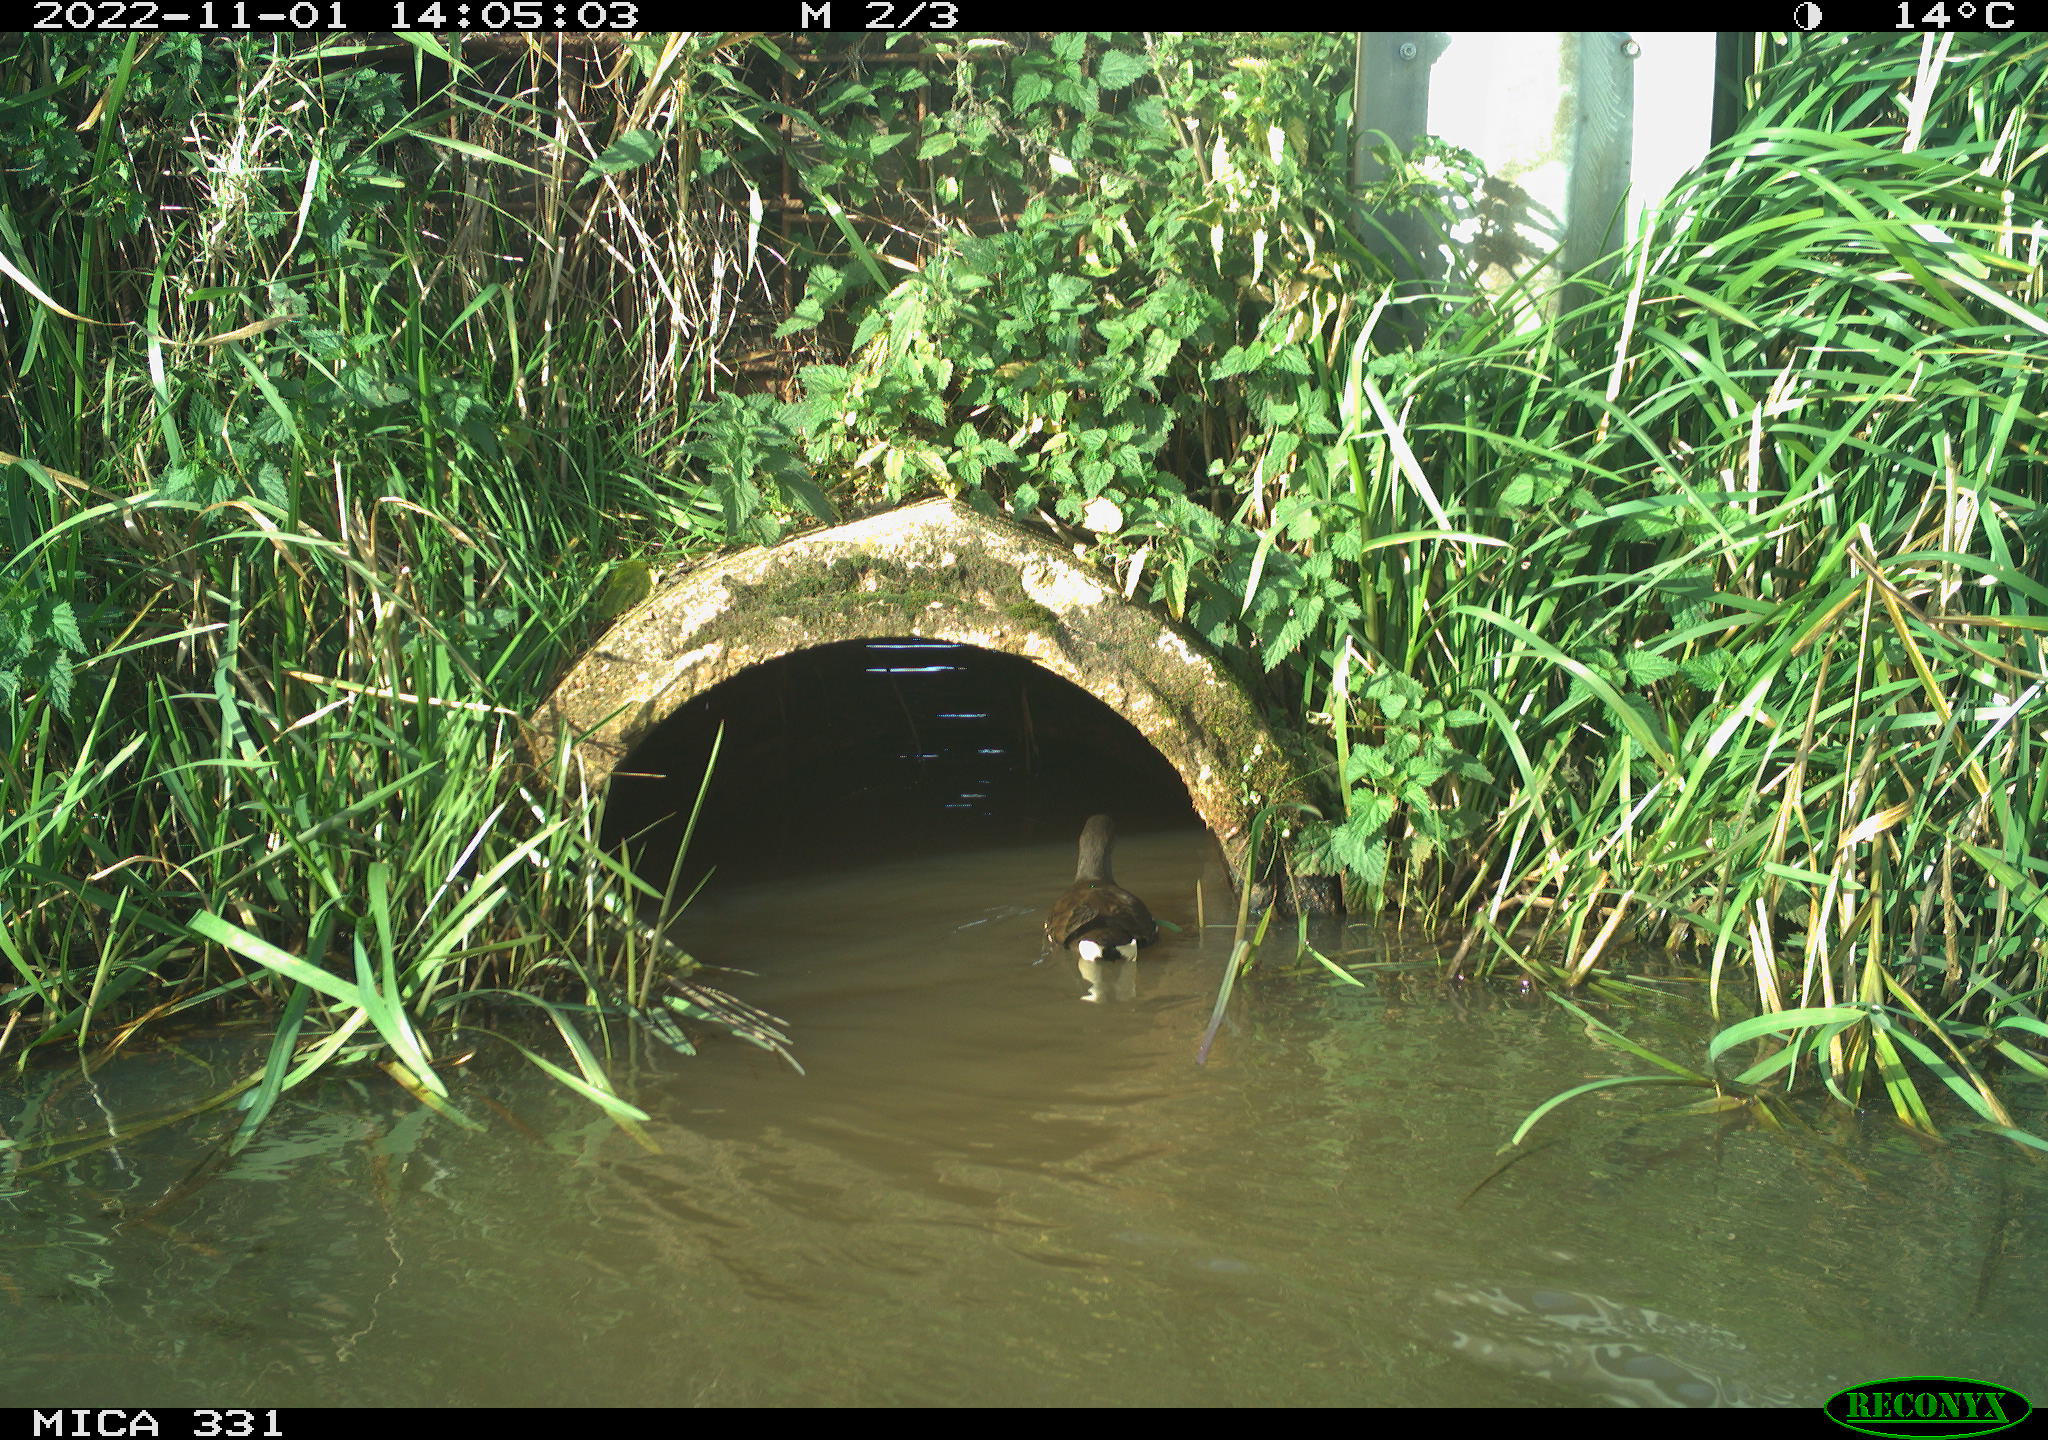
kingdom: Animalia
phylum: Chordata
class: Aves
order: Gruiformes
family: Rallidae
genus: Gallinula
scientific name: Gallinula chloropus
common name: Common moorhen
